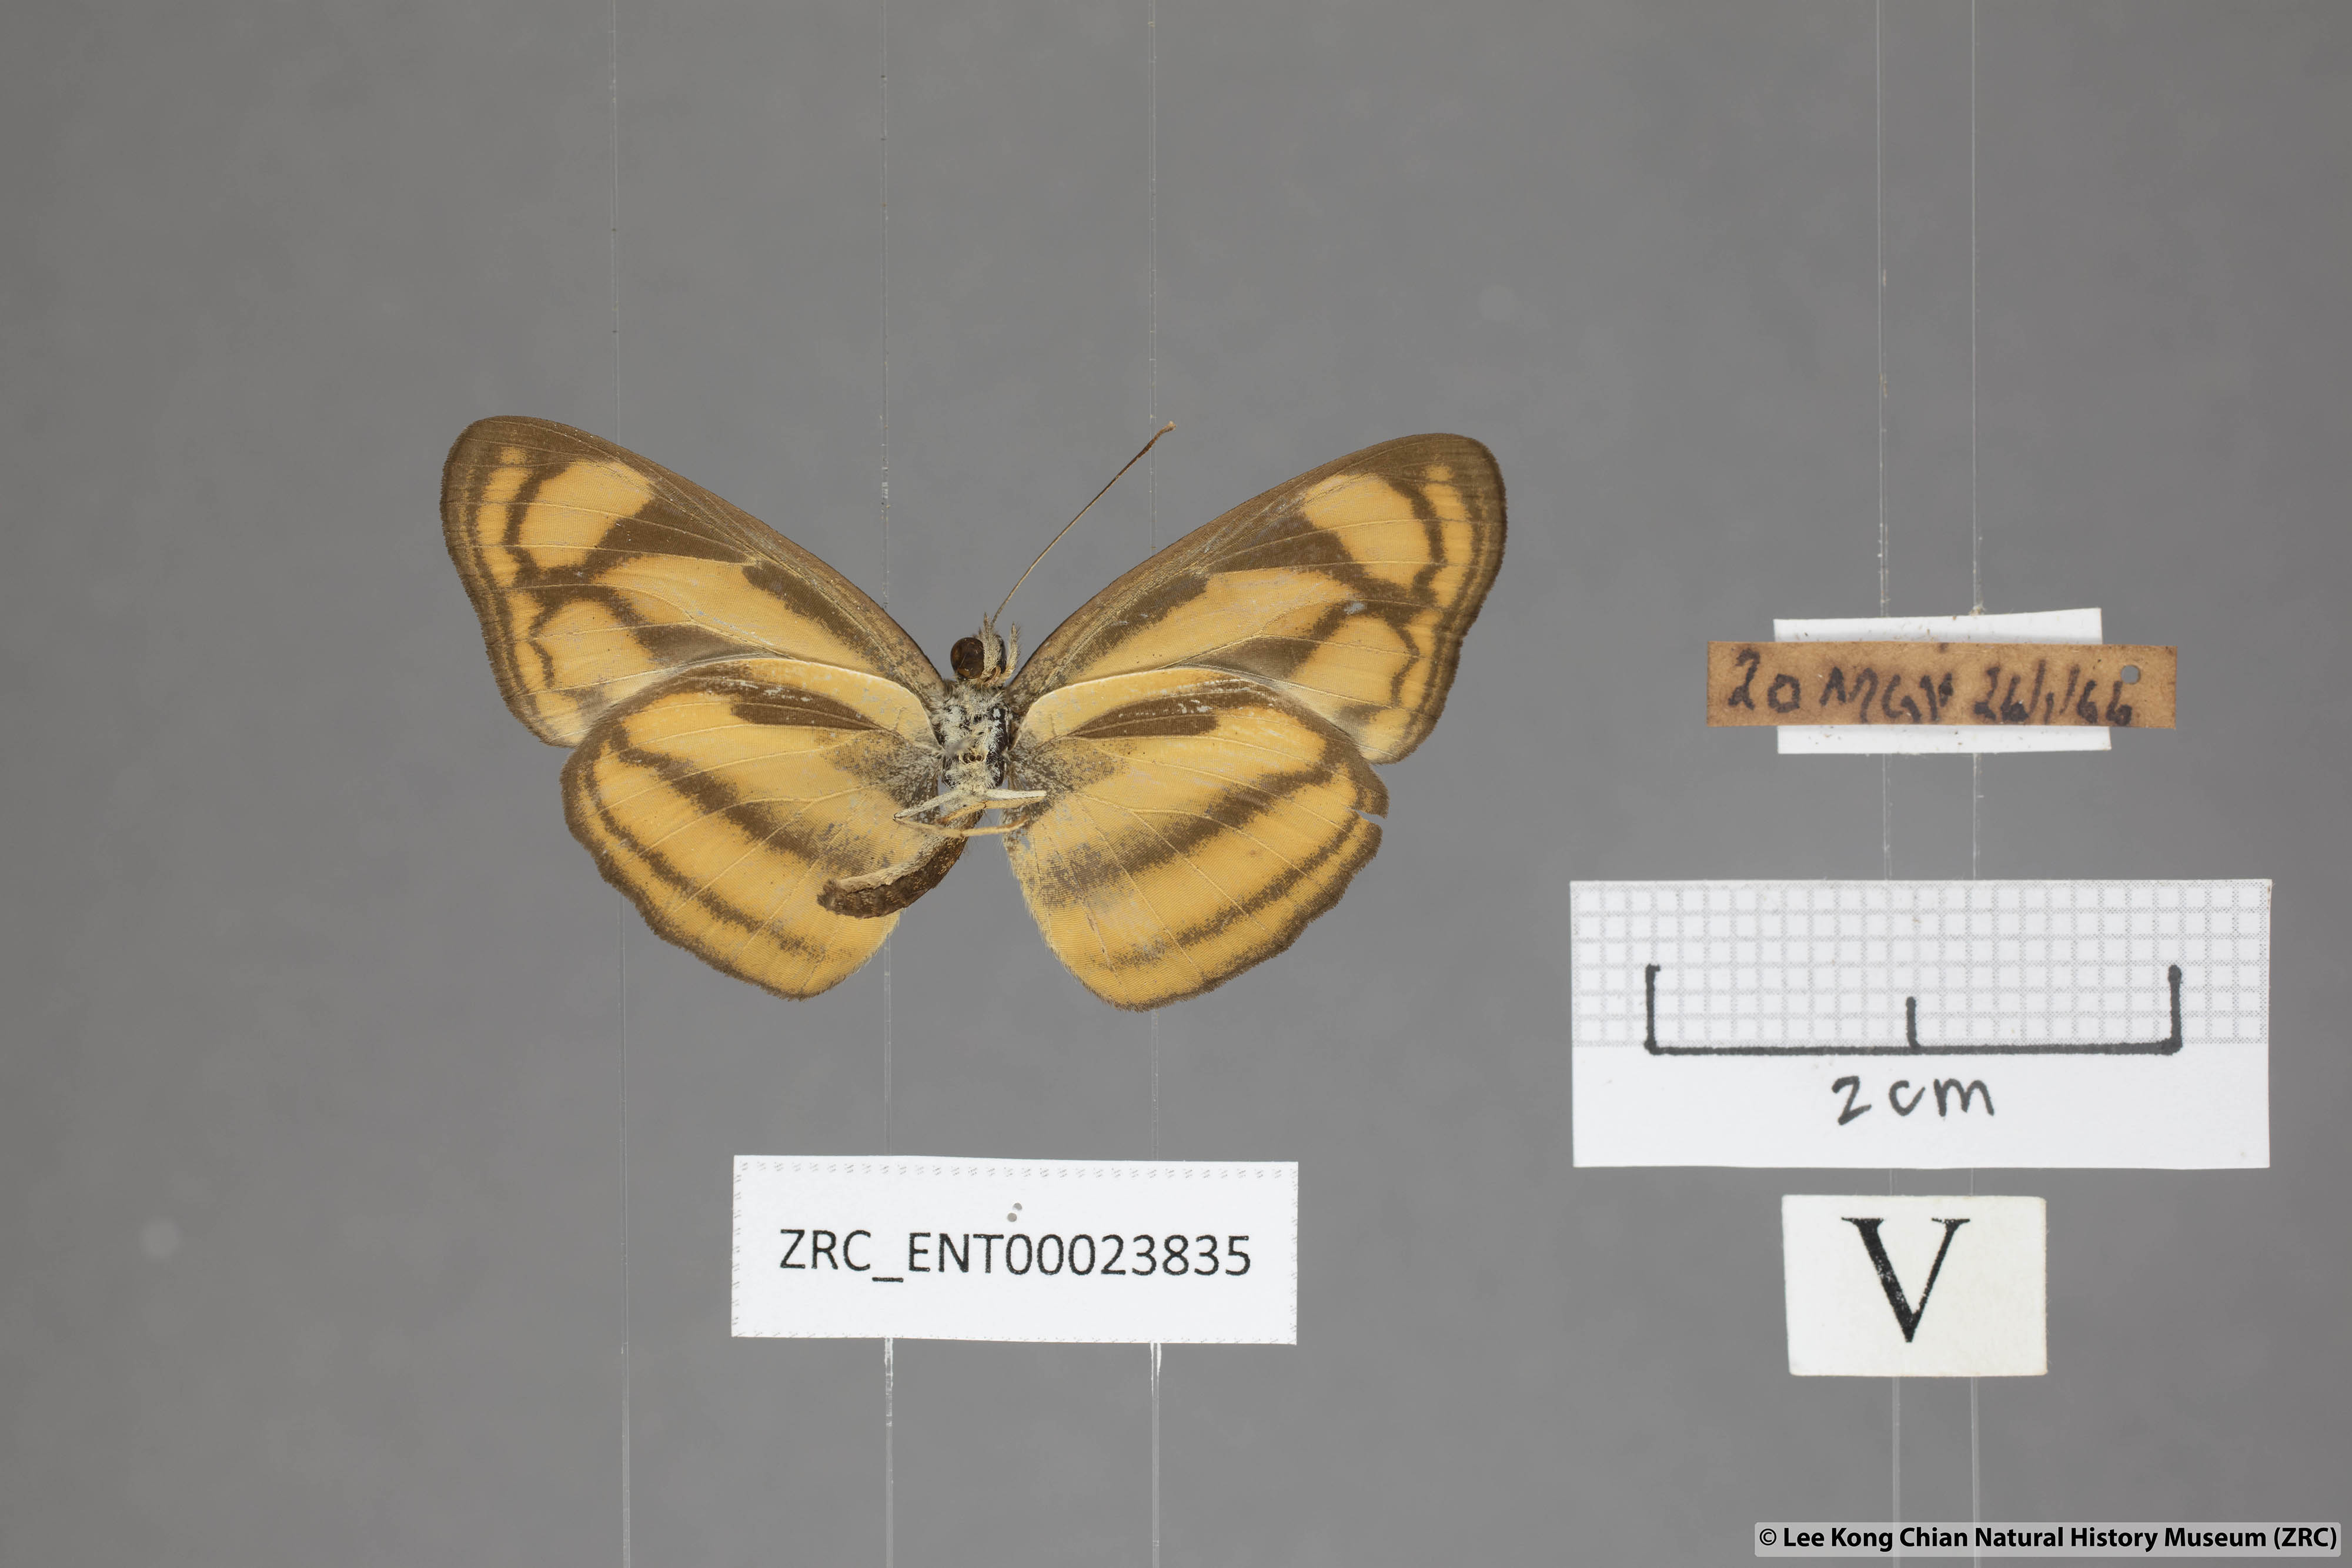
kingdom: Animalia
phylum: Arthropoda
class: Insecta
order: Lepidoptera
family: Nymphalidae
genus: Lasippa
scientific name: Lasippa heliodore
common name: Burmese lascar
